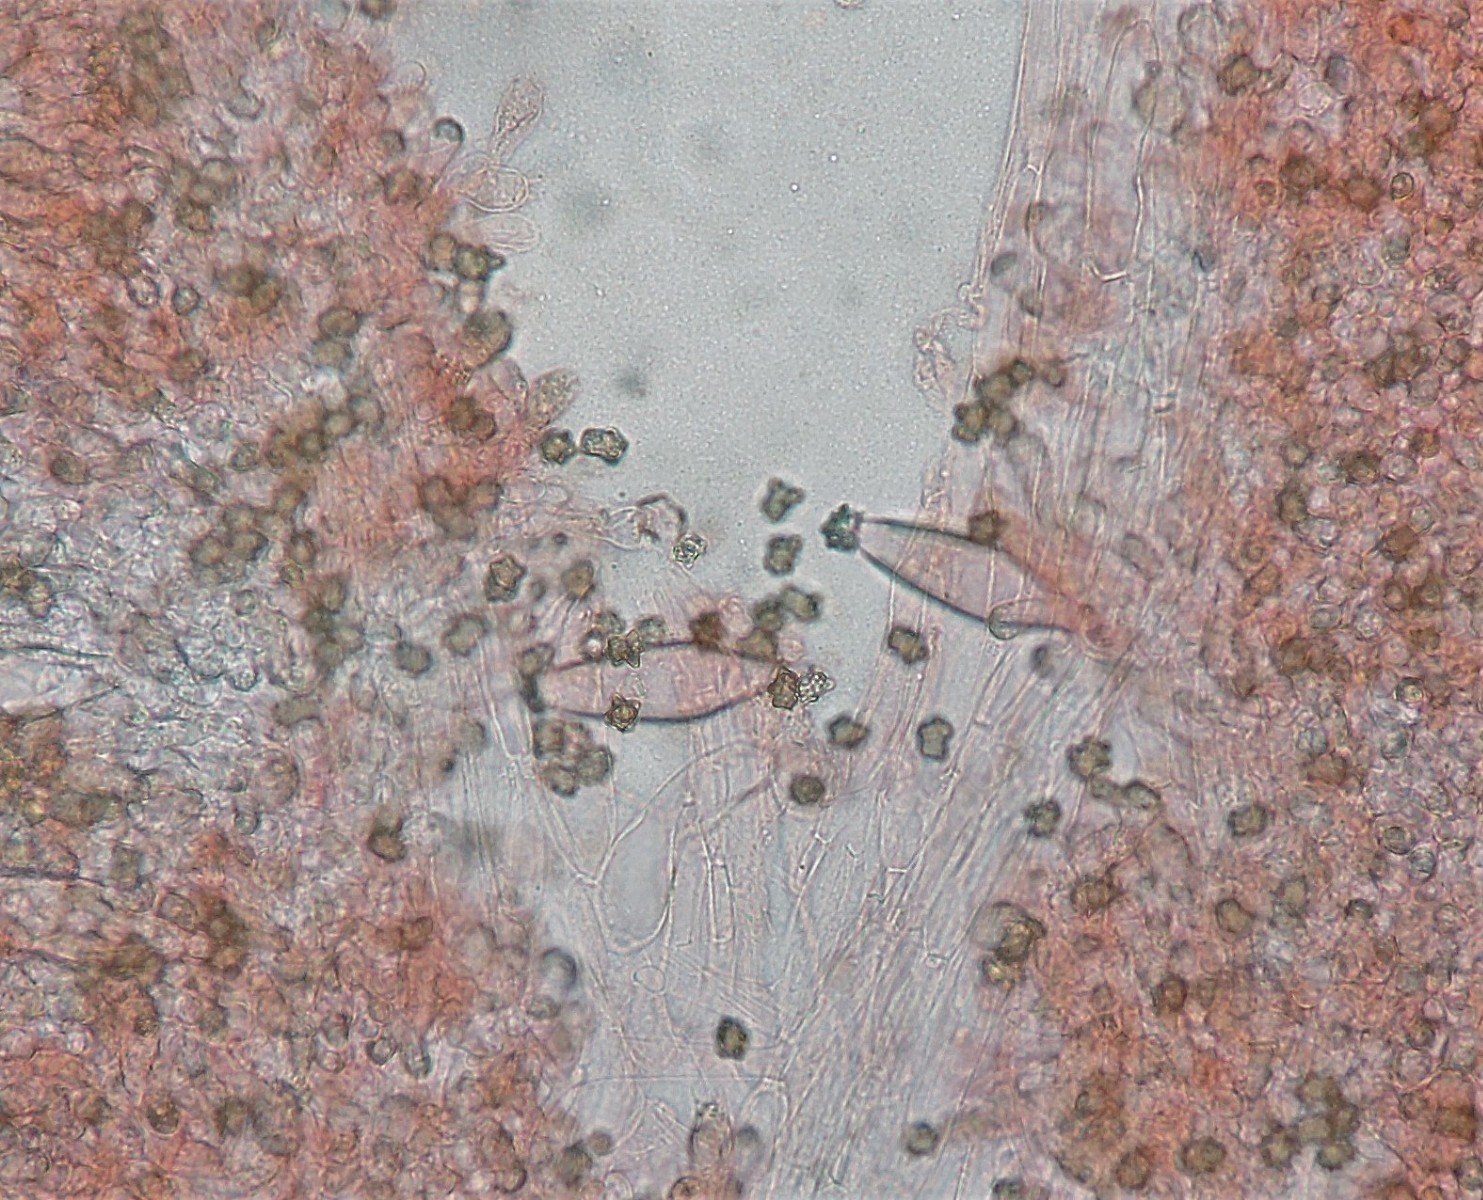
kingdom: Fungi
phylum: Basidiomycota
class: Agaricomycetes
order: Agaricales
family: Inocybaceae
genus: Inocybe
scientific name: Inocybe napipes
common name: roeknoldet trævlhat
